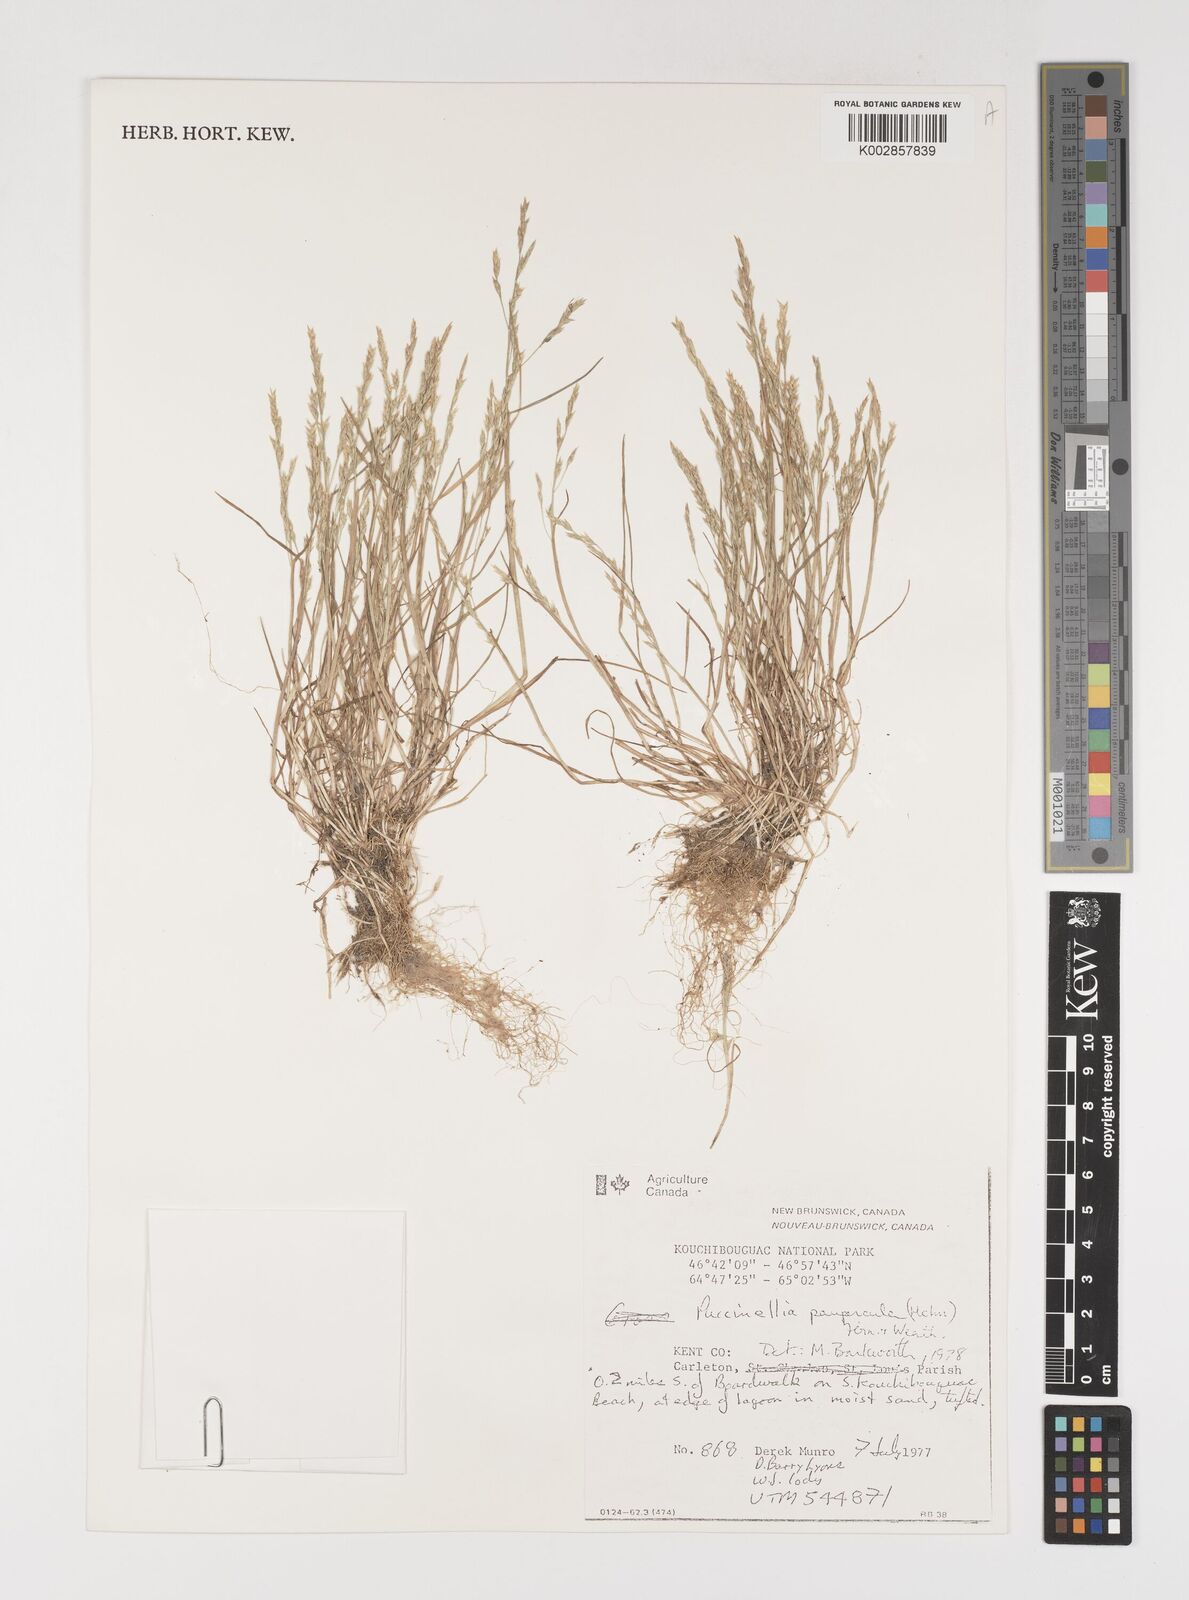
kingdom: Plantae
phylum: Tracheophyta
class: Liliopsida
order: Poales
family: Poaceae
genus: Puccinellia
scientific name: Puccinellia tenella
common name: Tundra alkaligrass
